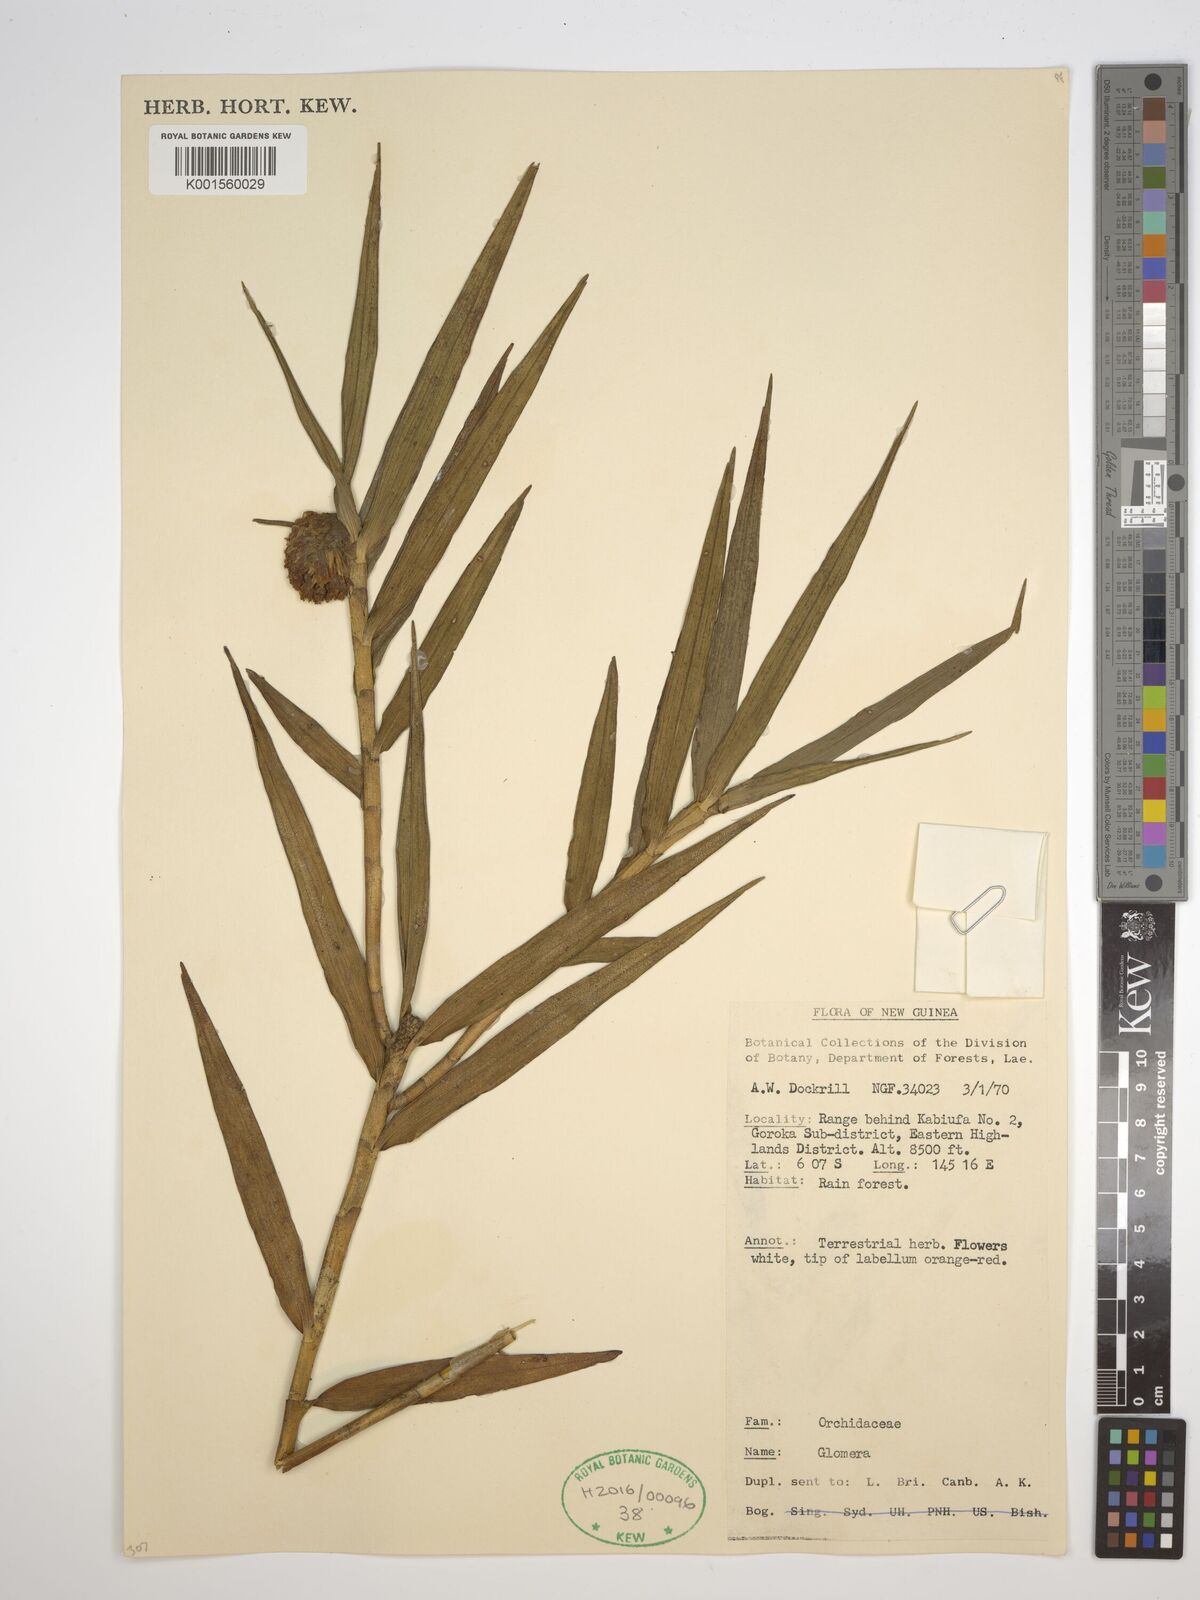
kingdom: Plantae
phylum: Tracheophyta
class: Liliopsida
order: Asparagales
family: Orchidaceae
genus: Glomera
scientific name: Glomera
